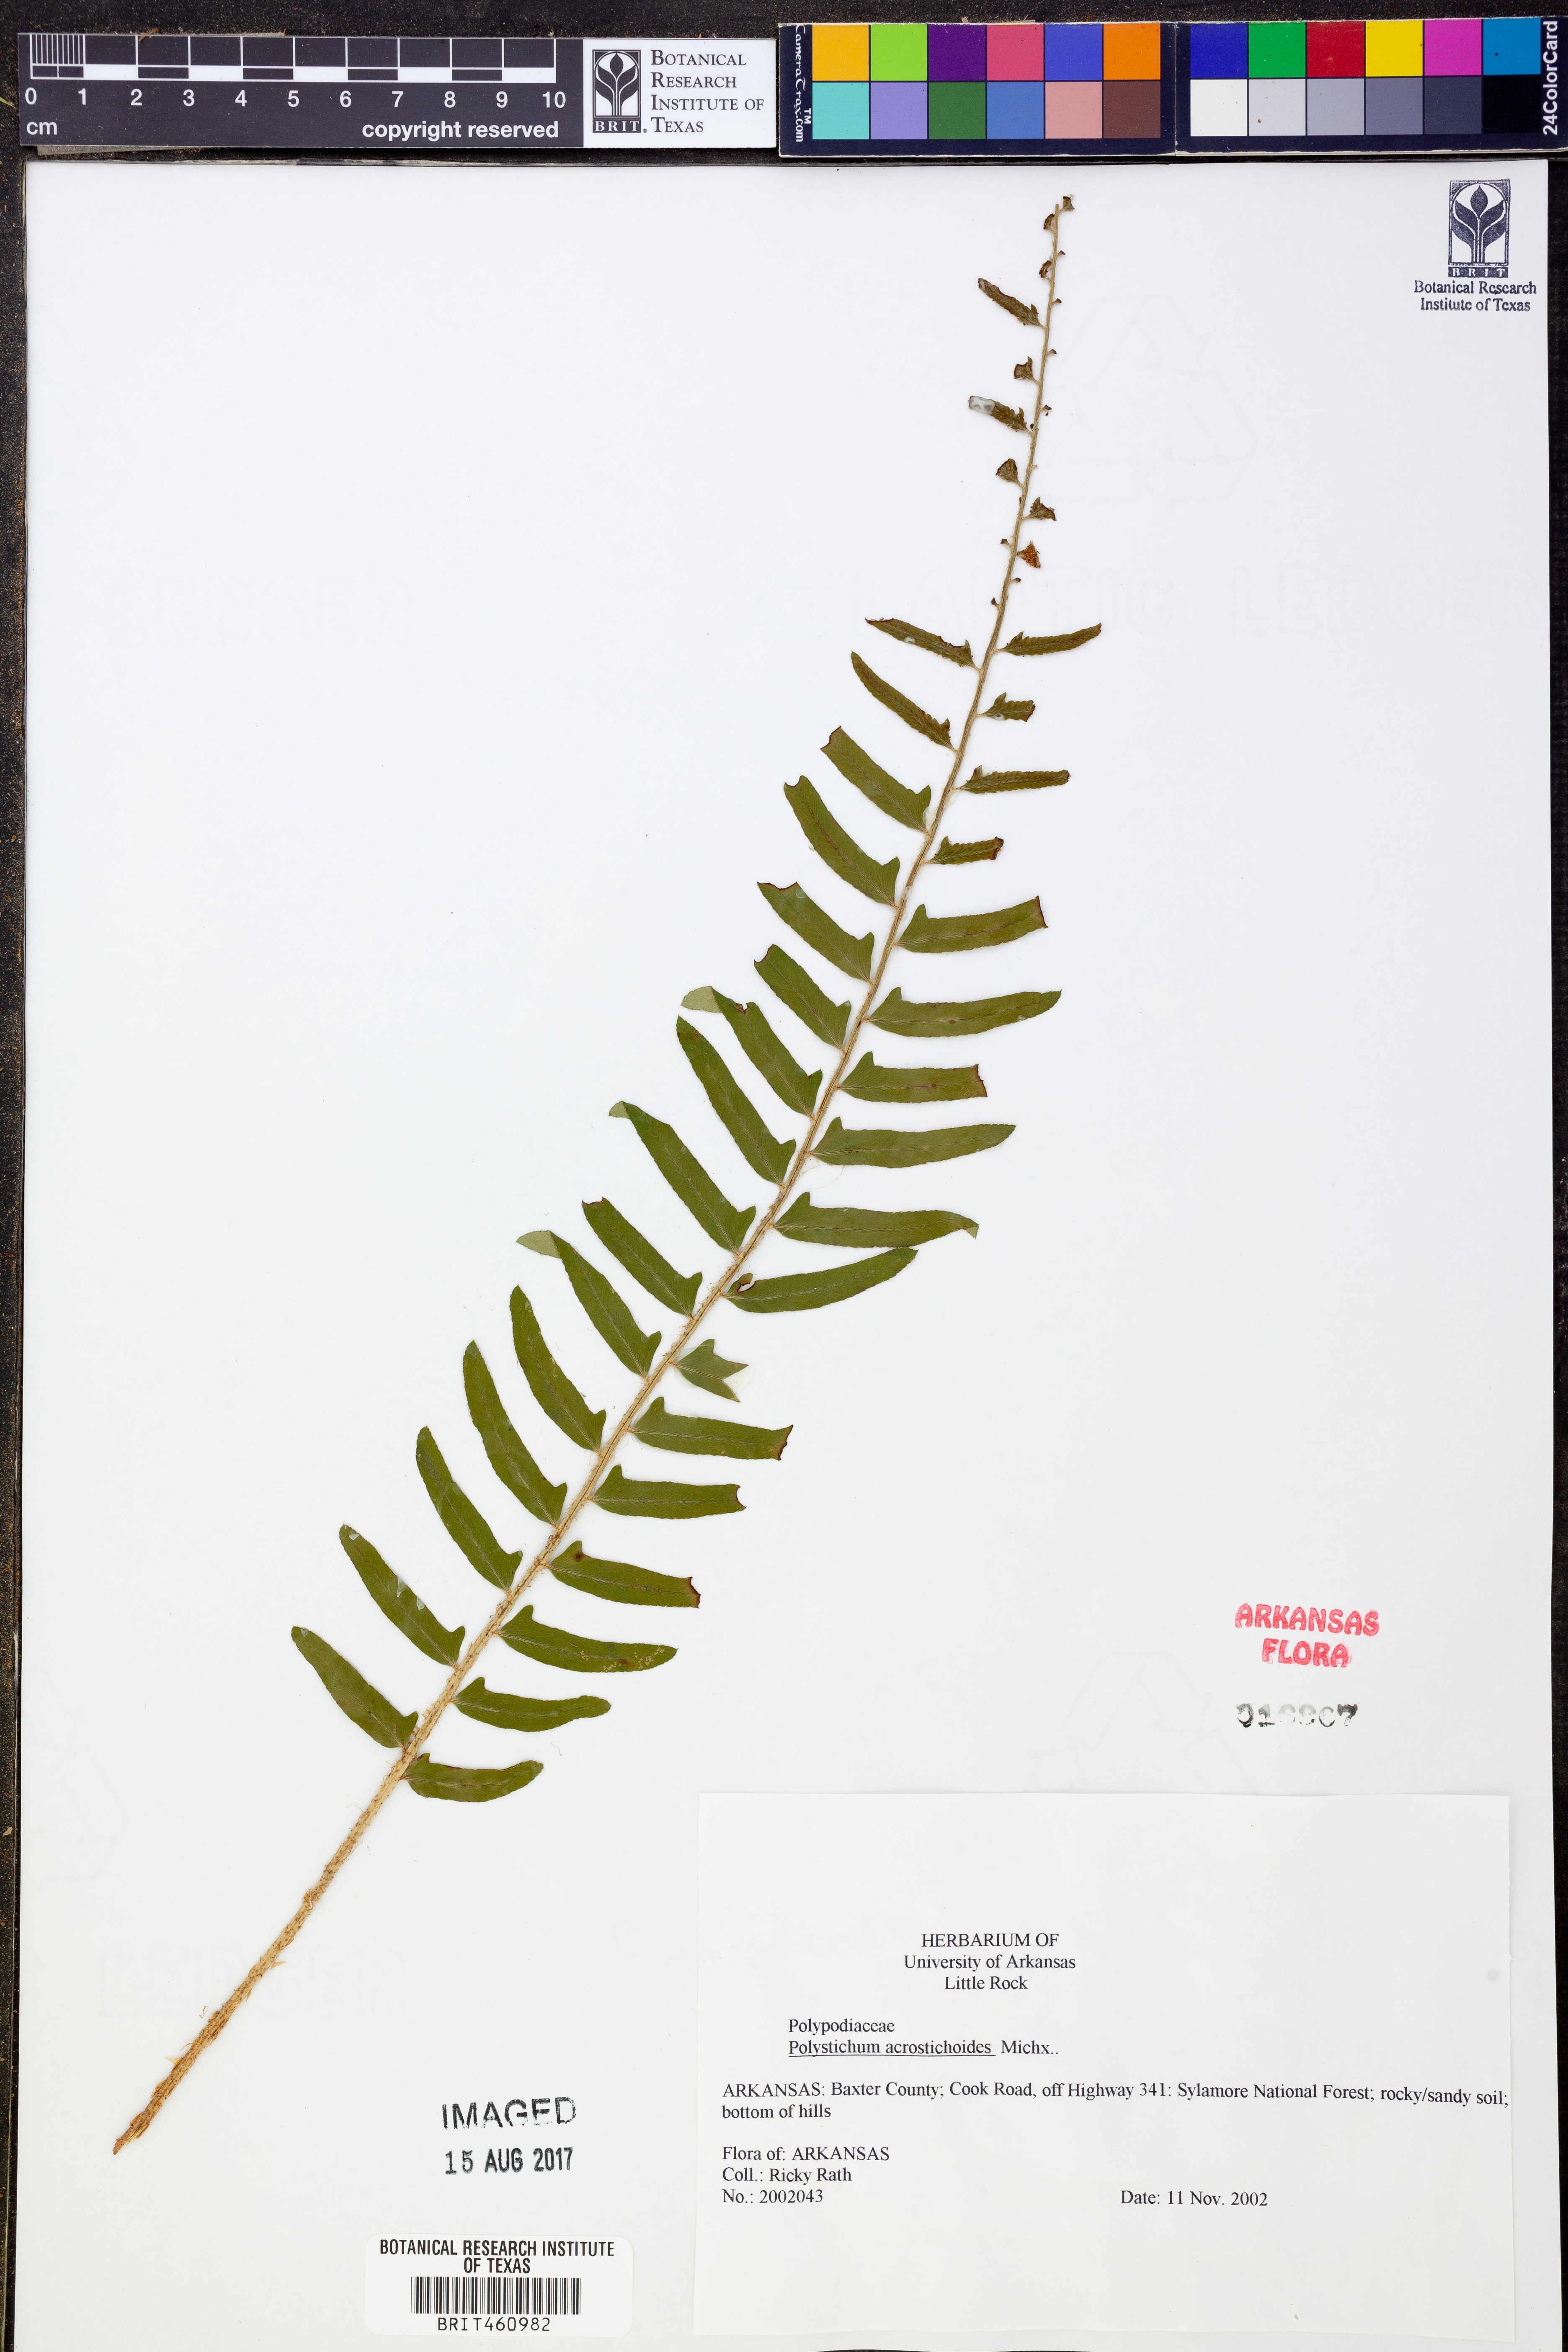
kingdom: Plantae
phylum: Tracheophyta
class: Polypodiopsida
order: Polypodiales
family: Dryopteridaceae
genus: Polystichum
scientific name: Polystichum acrostichoides
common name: Christmas fern
